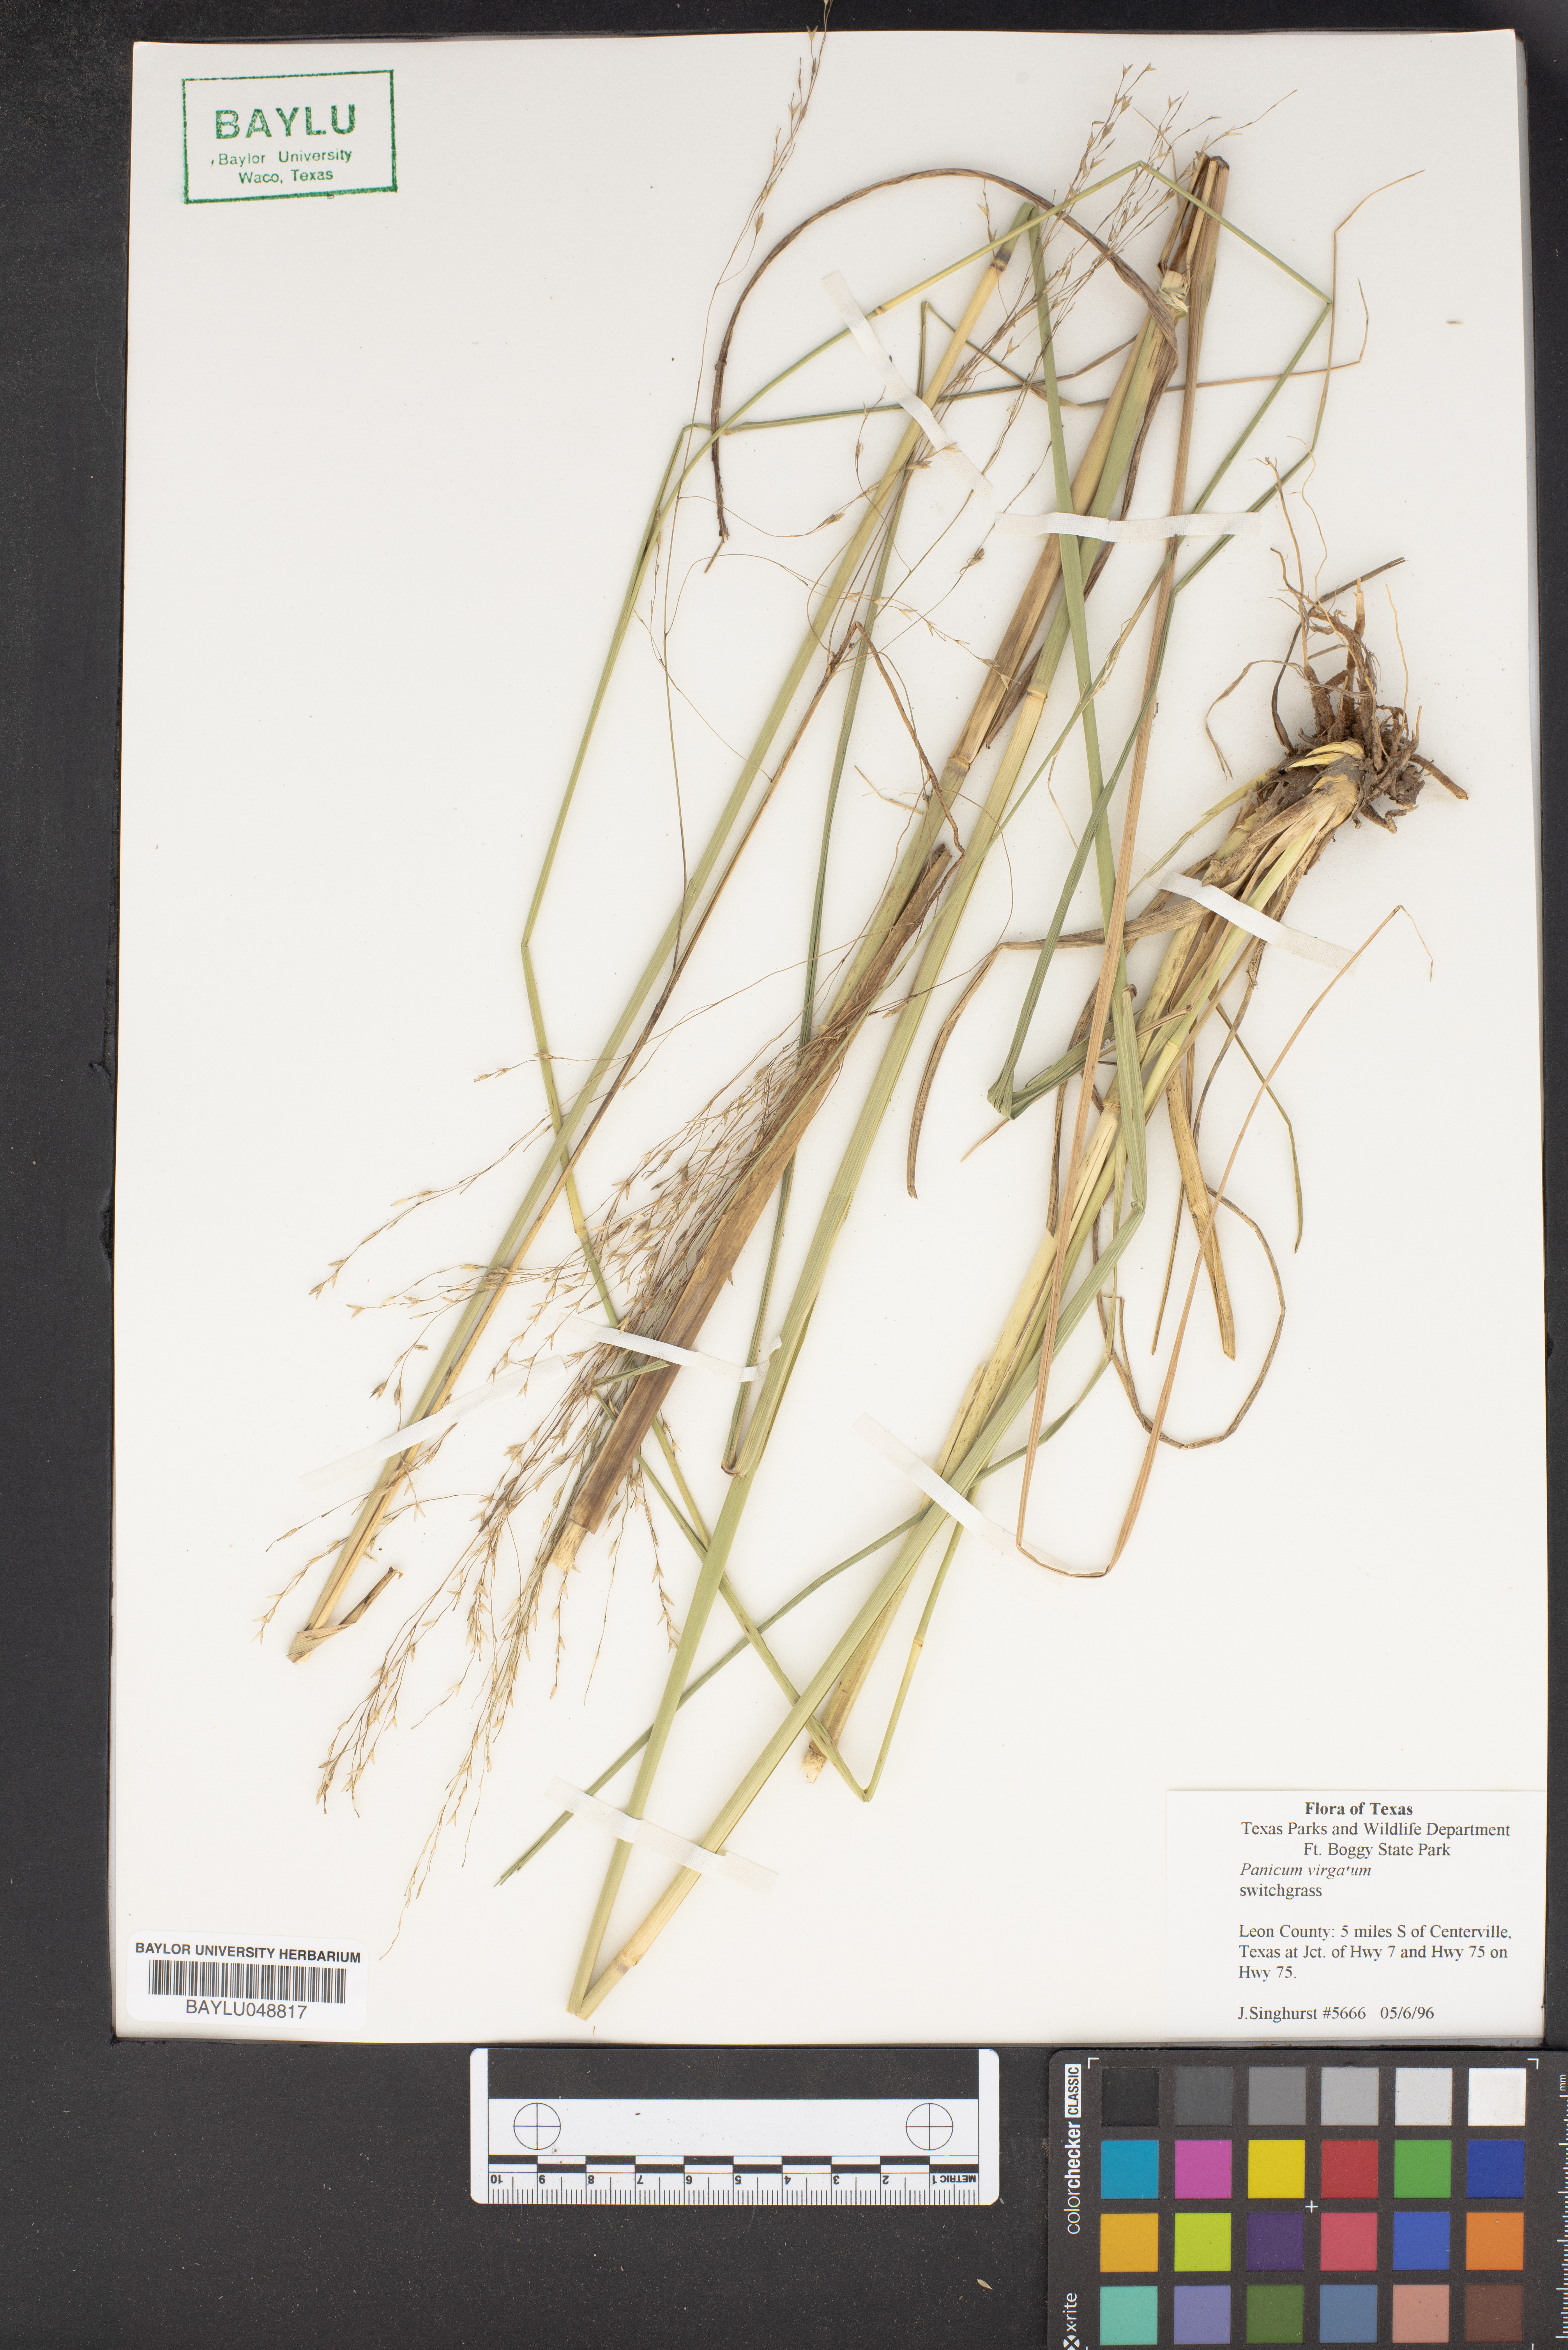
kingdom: Plantae
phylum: Tracheophyta
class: Liliopsida
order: Poales
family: Poaceae
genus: Panicum
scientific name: Panicum virgatum
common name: Switchgrass
